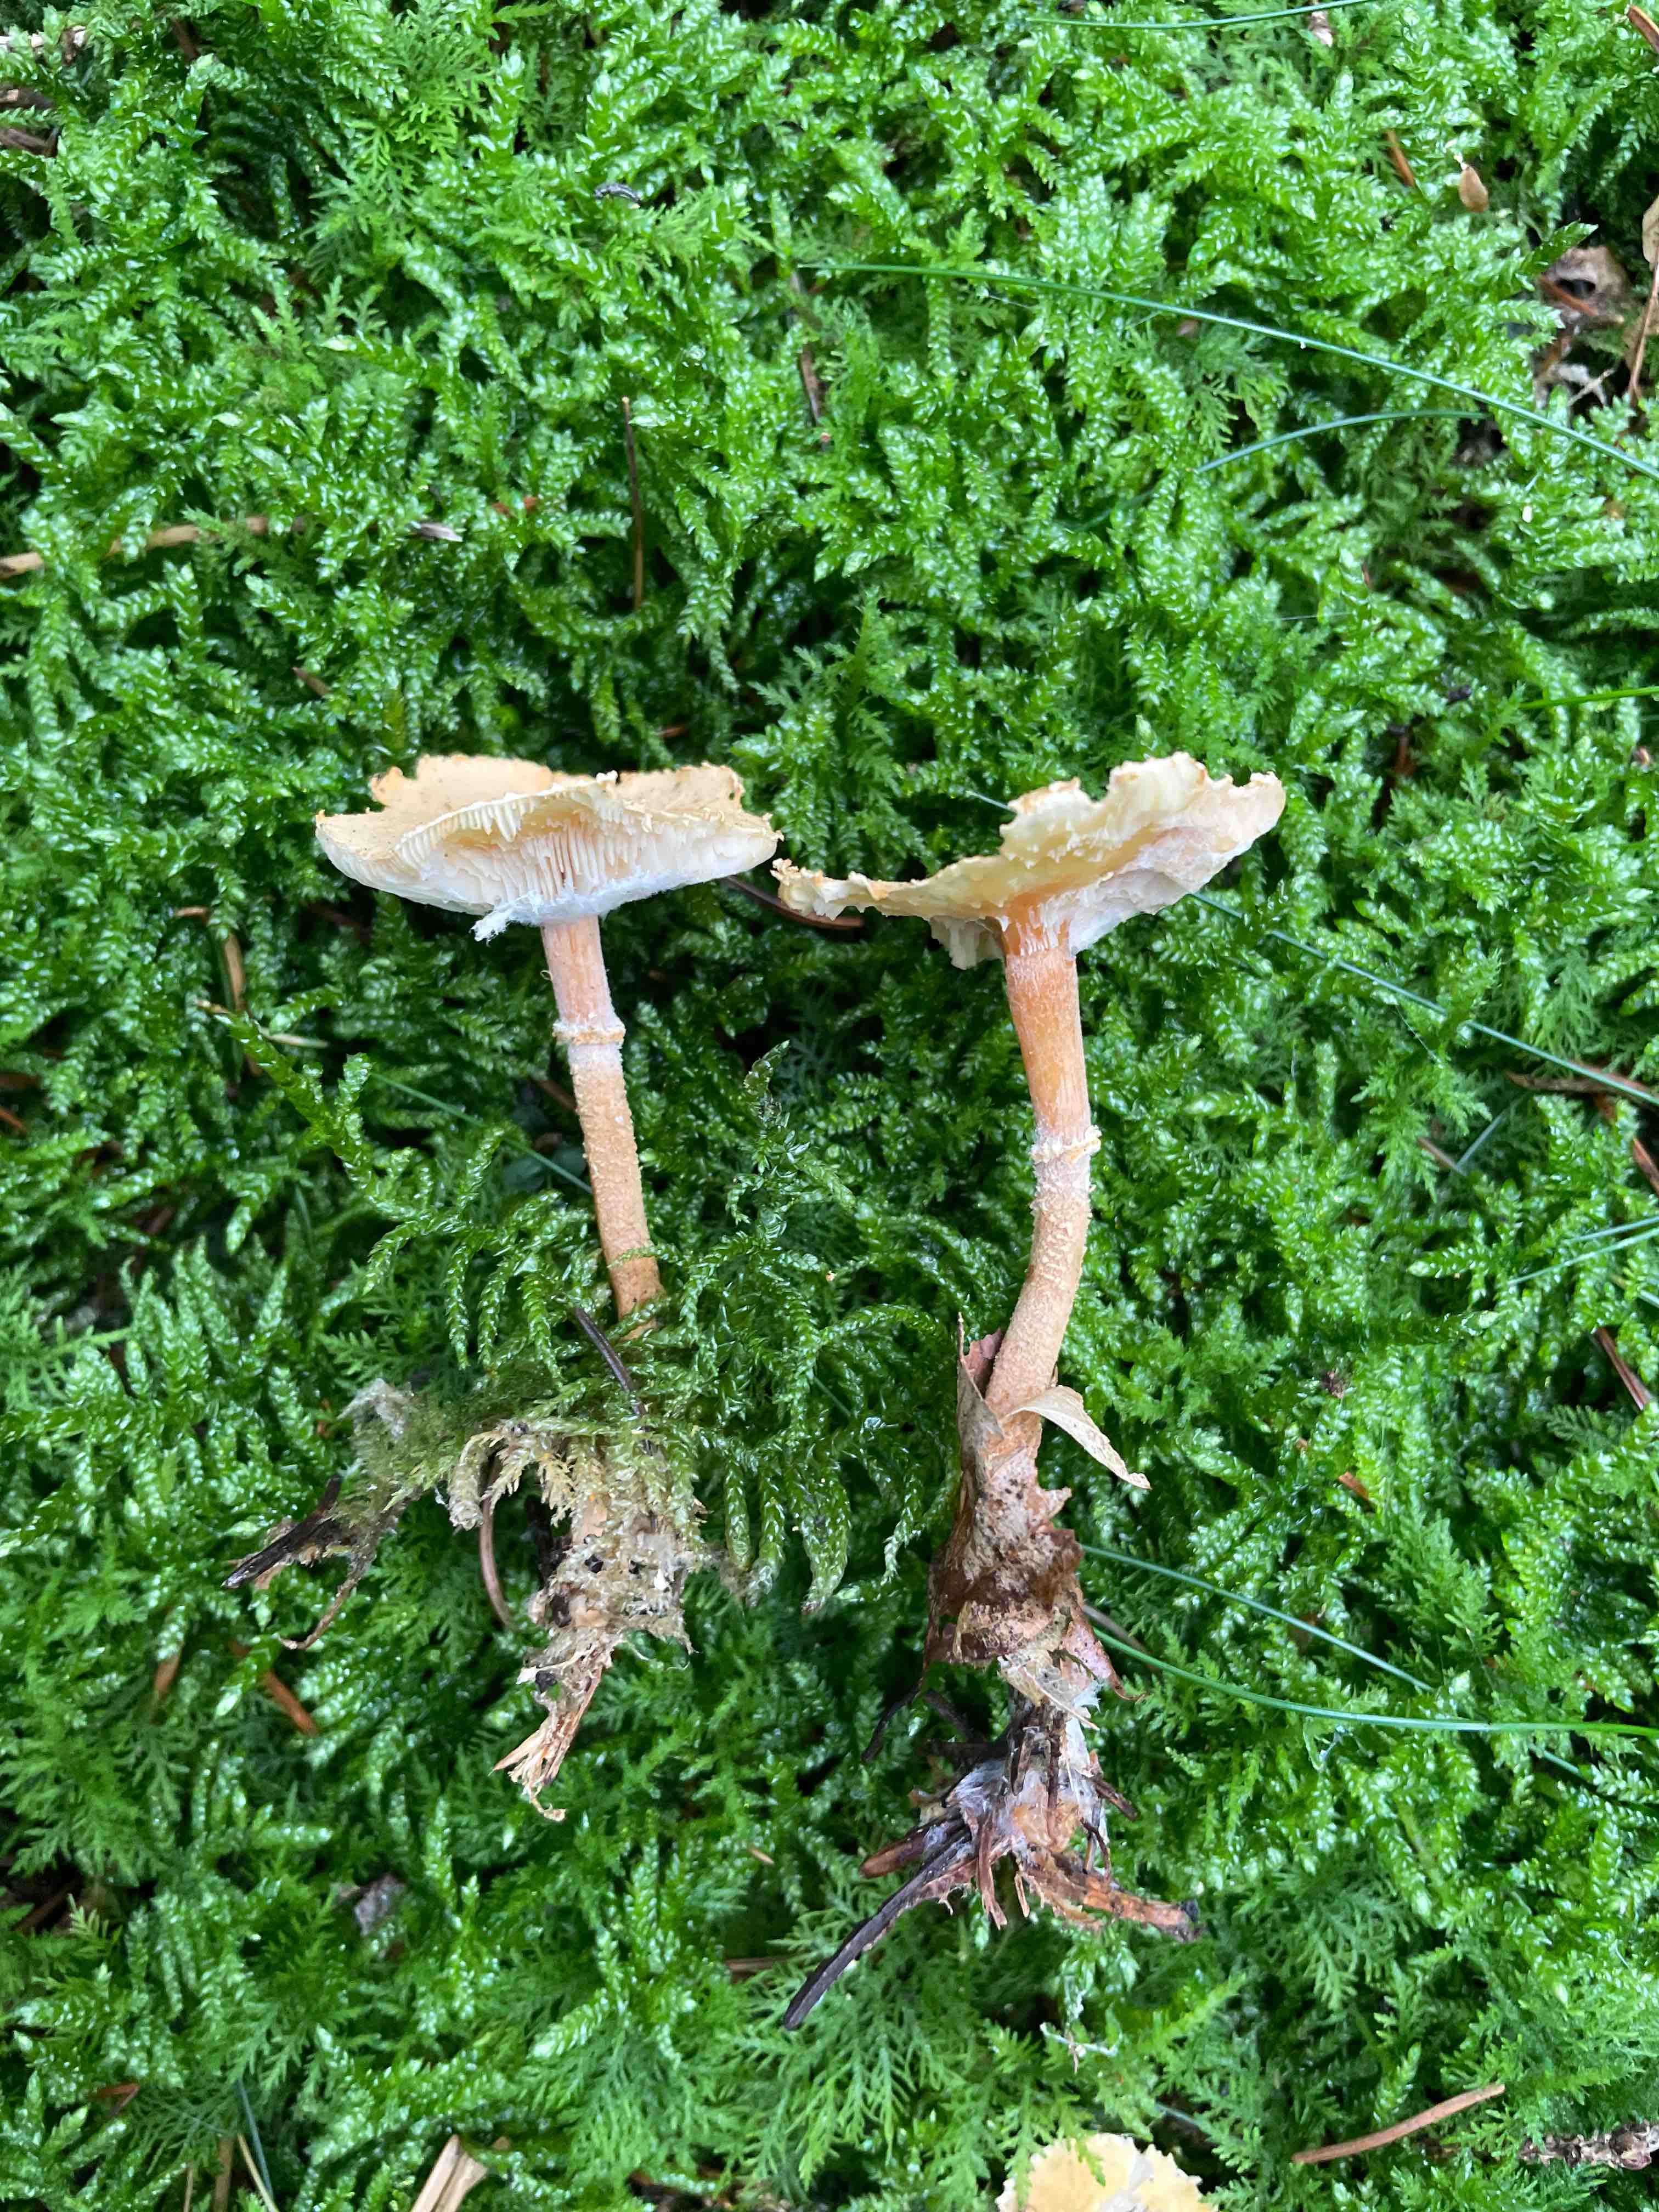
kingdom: Fungi
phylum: Basidiomycota
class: Agaricomycetes
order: Agaricales
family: Tricholomataceae
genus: Cystoderma
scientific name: Cystoderma amianthinum
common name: okkergul grynhat
